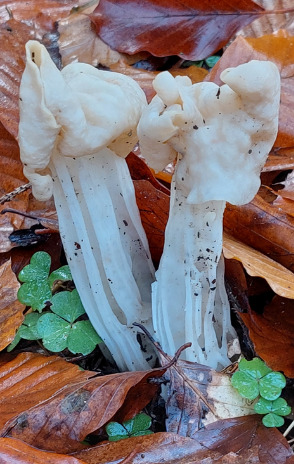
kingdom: Fungi
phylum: Ascomycota
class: Pezizomycetes
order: Pezizales
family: Helvellaceae
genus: Helvella
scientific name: Helvella crispa
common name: Kruset foldhat
